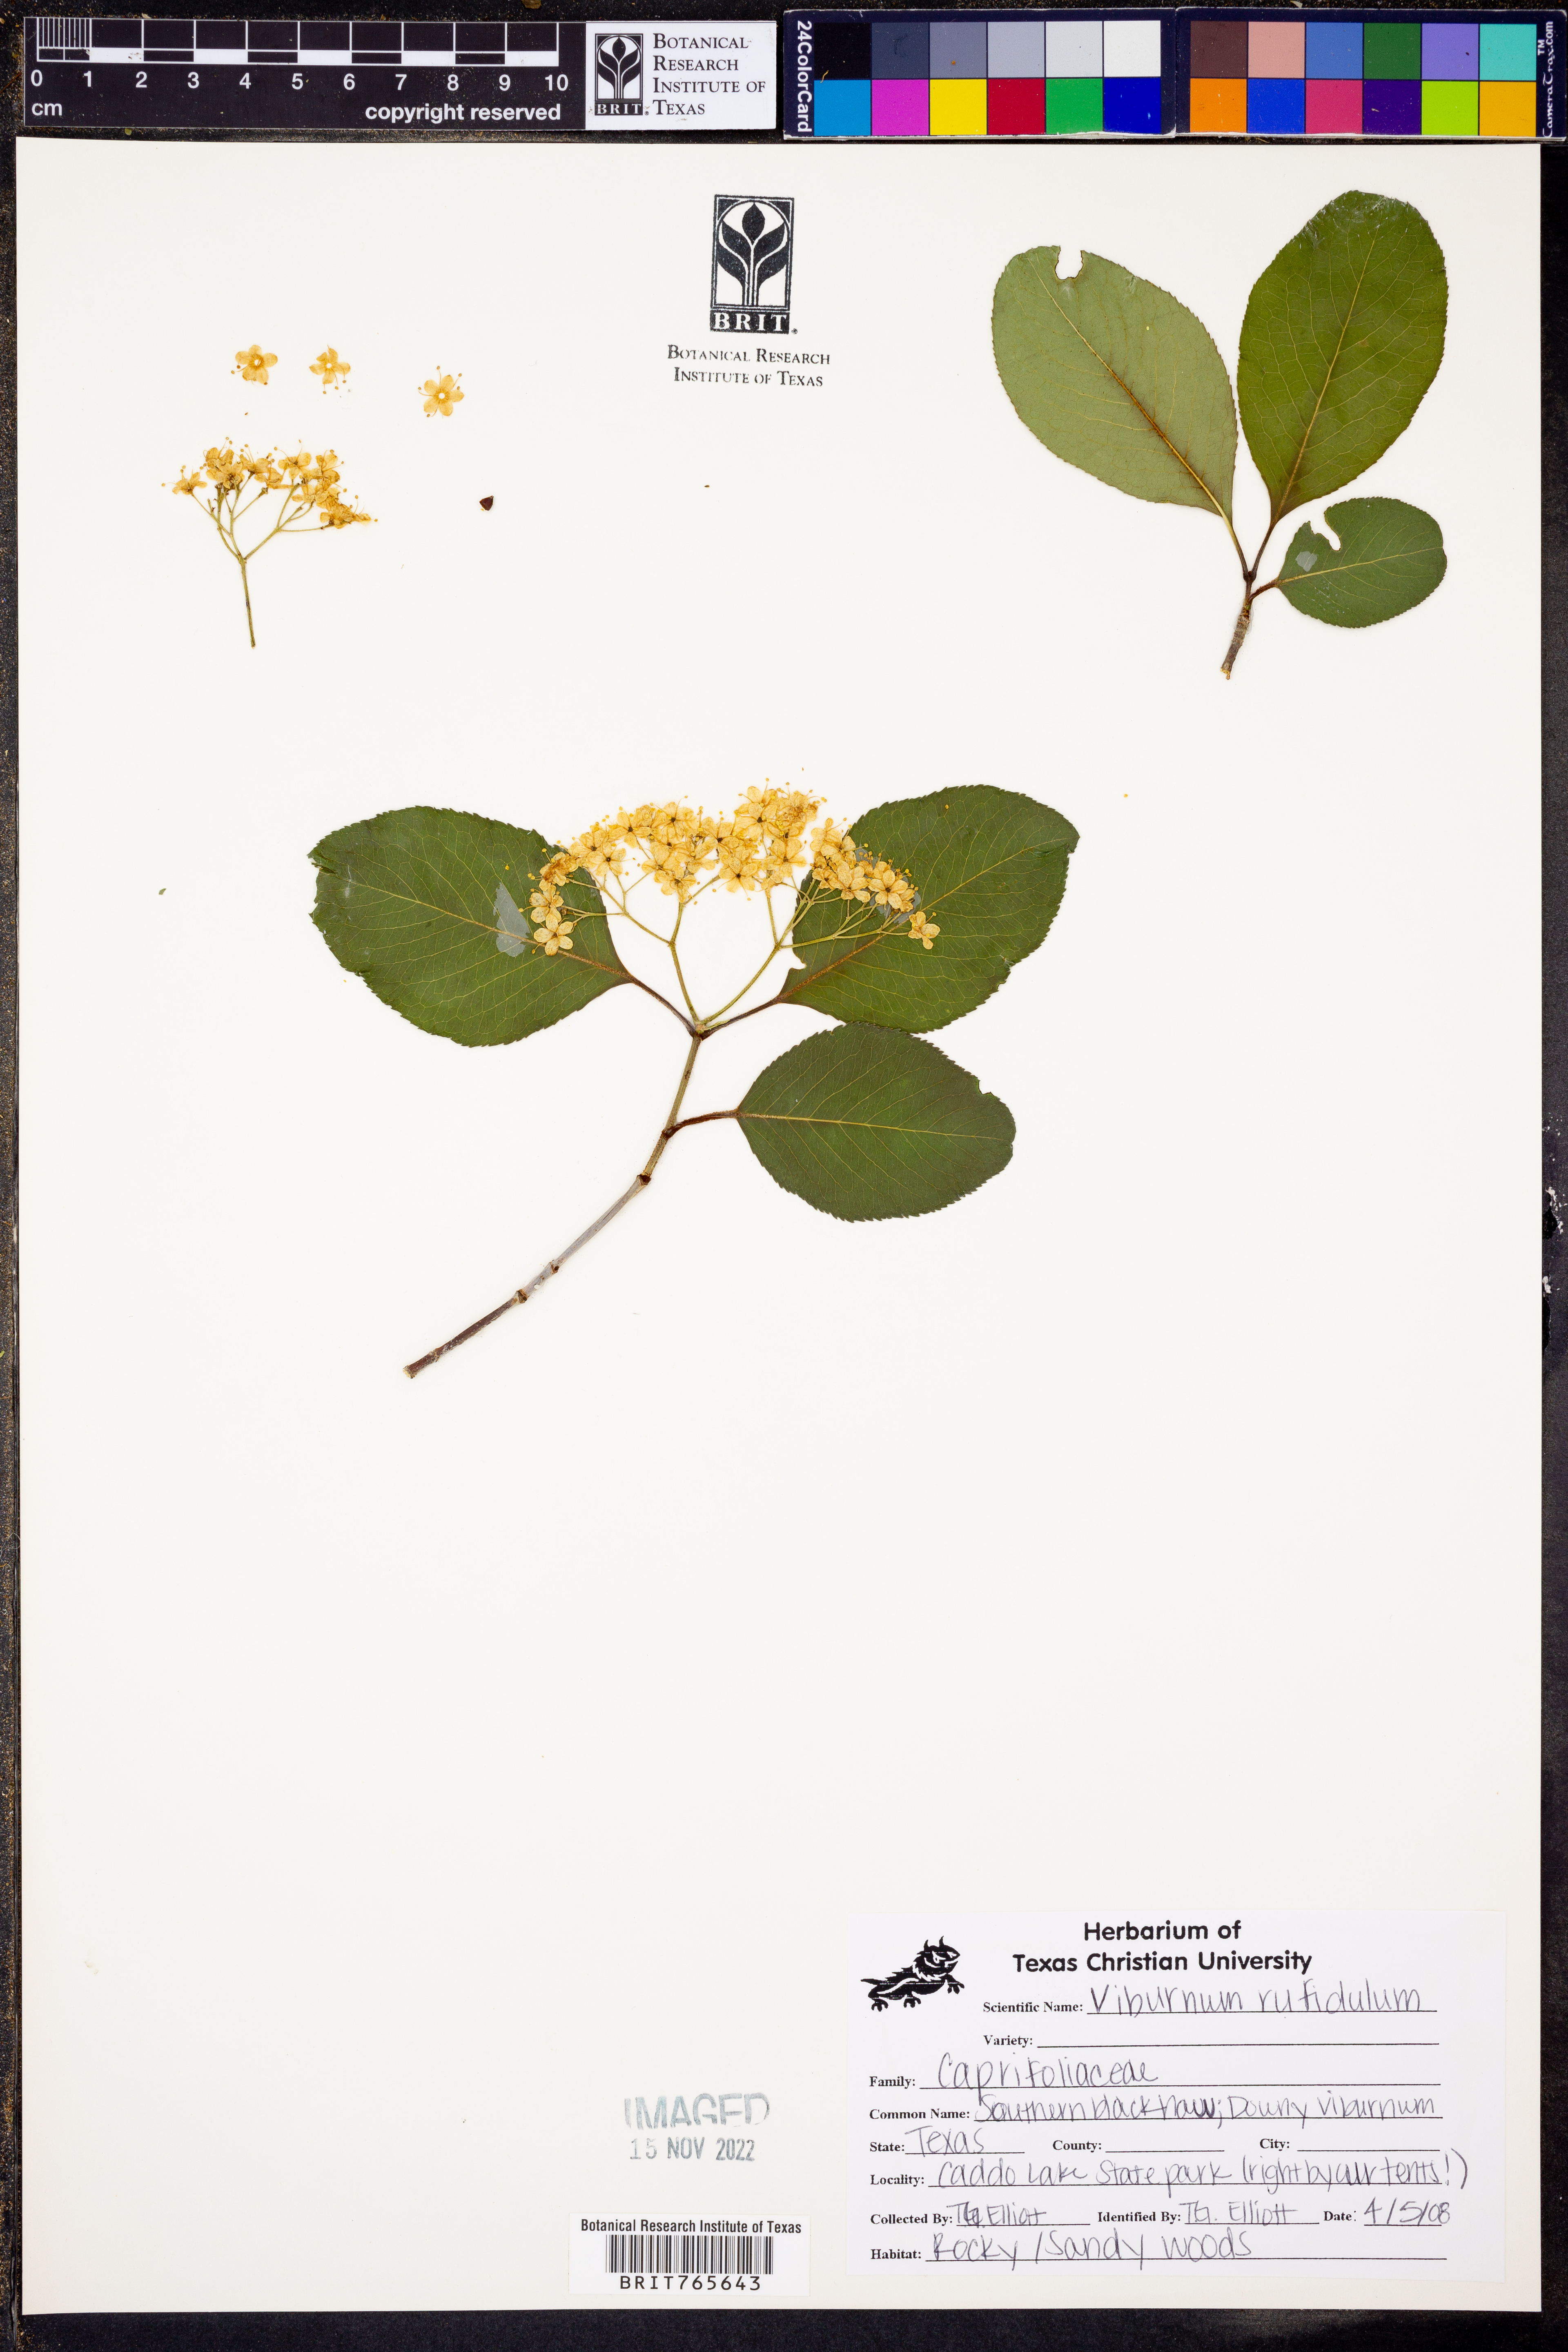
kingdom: Plantae
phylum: Tracheophyta
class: Magnoliopsida
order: Dipsacales
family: Viburnaceae
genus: Viburnum
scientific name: Viburnum rufidulum
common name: Blue haw
